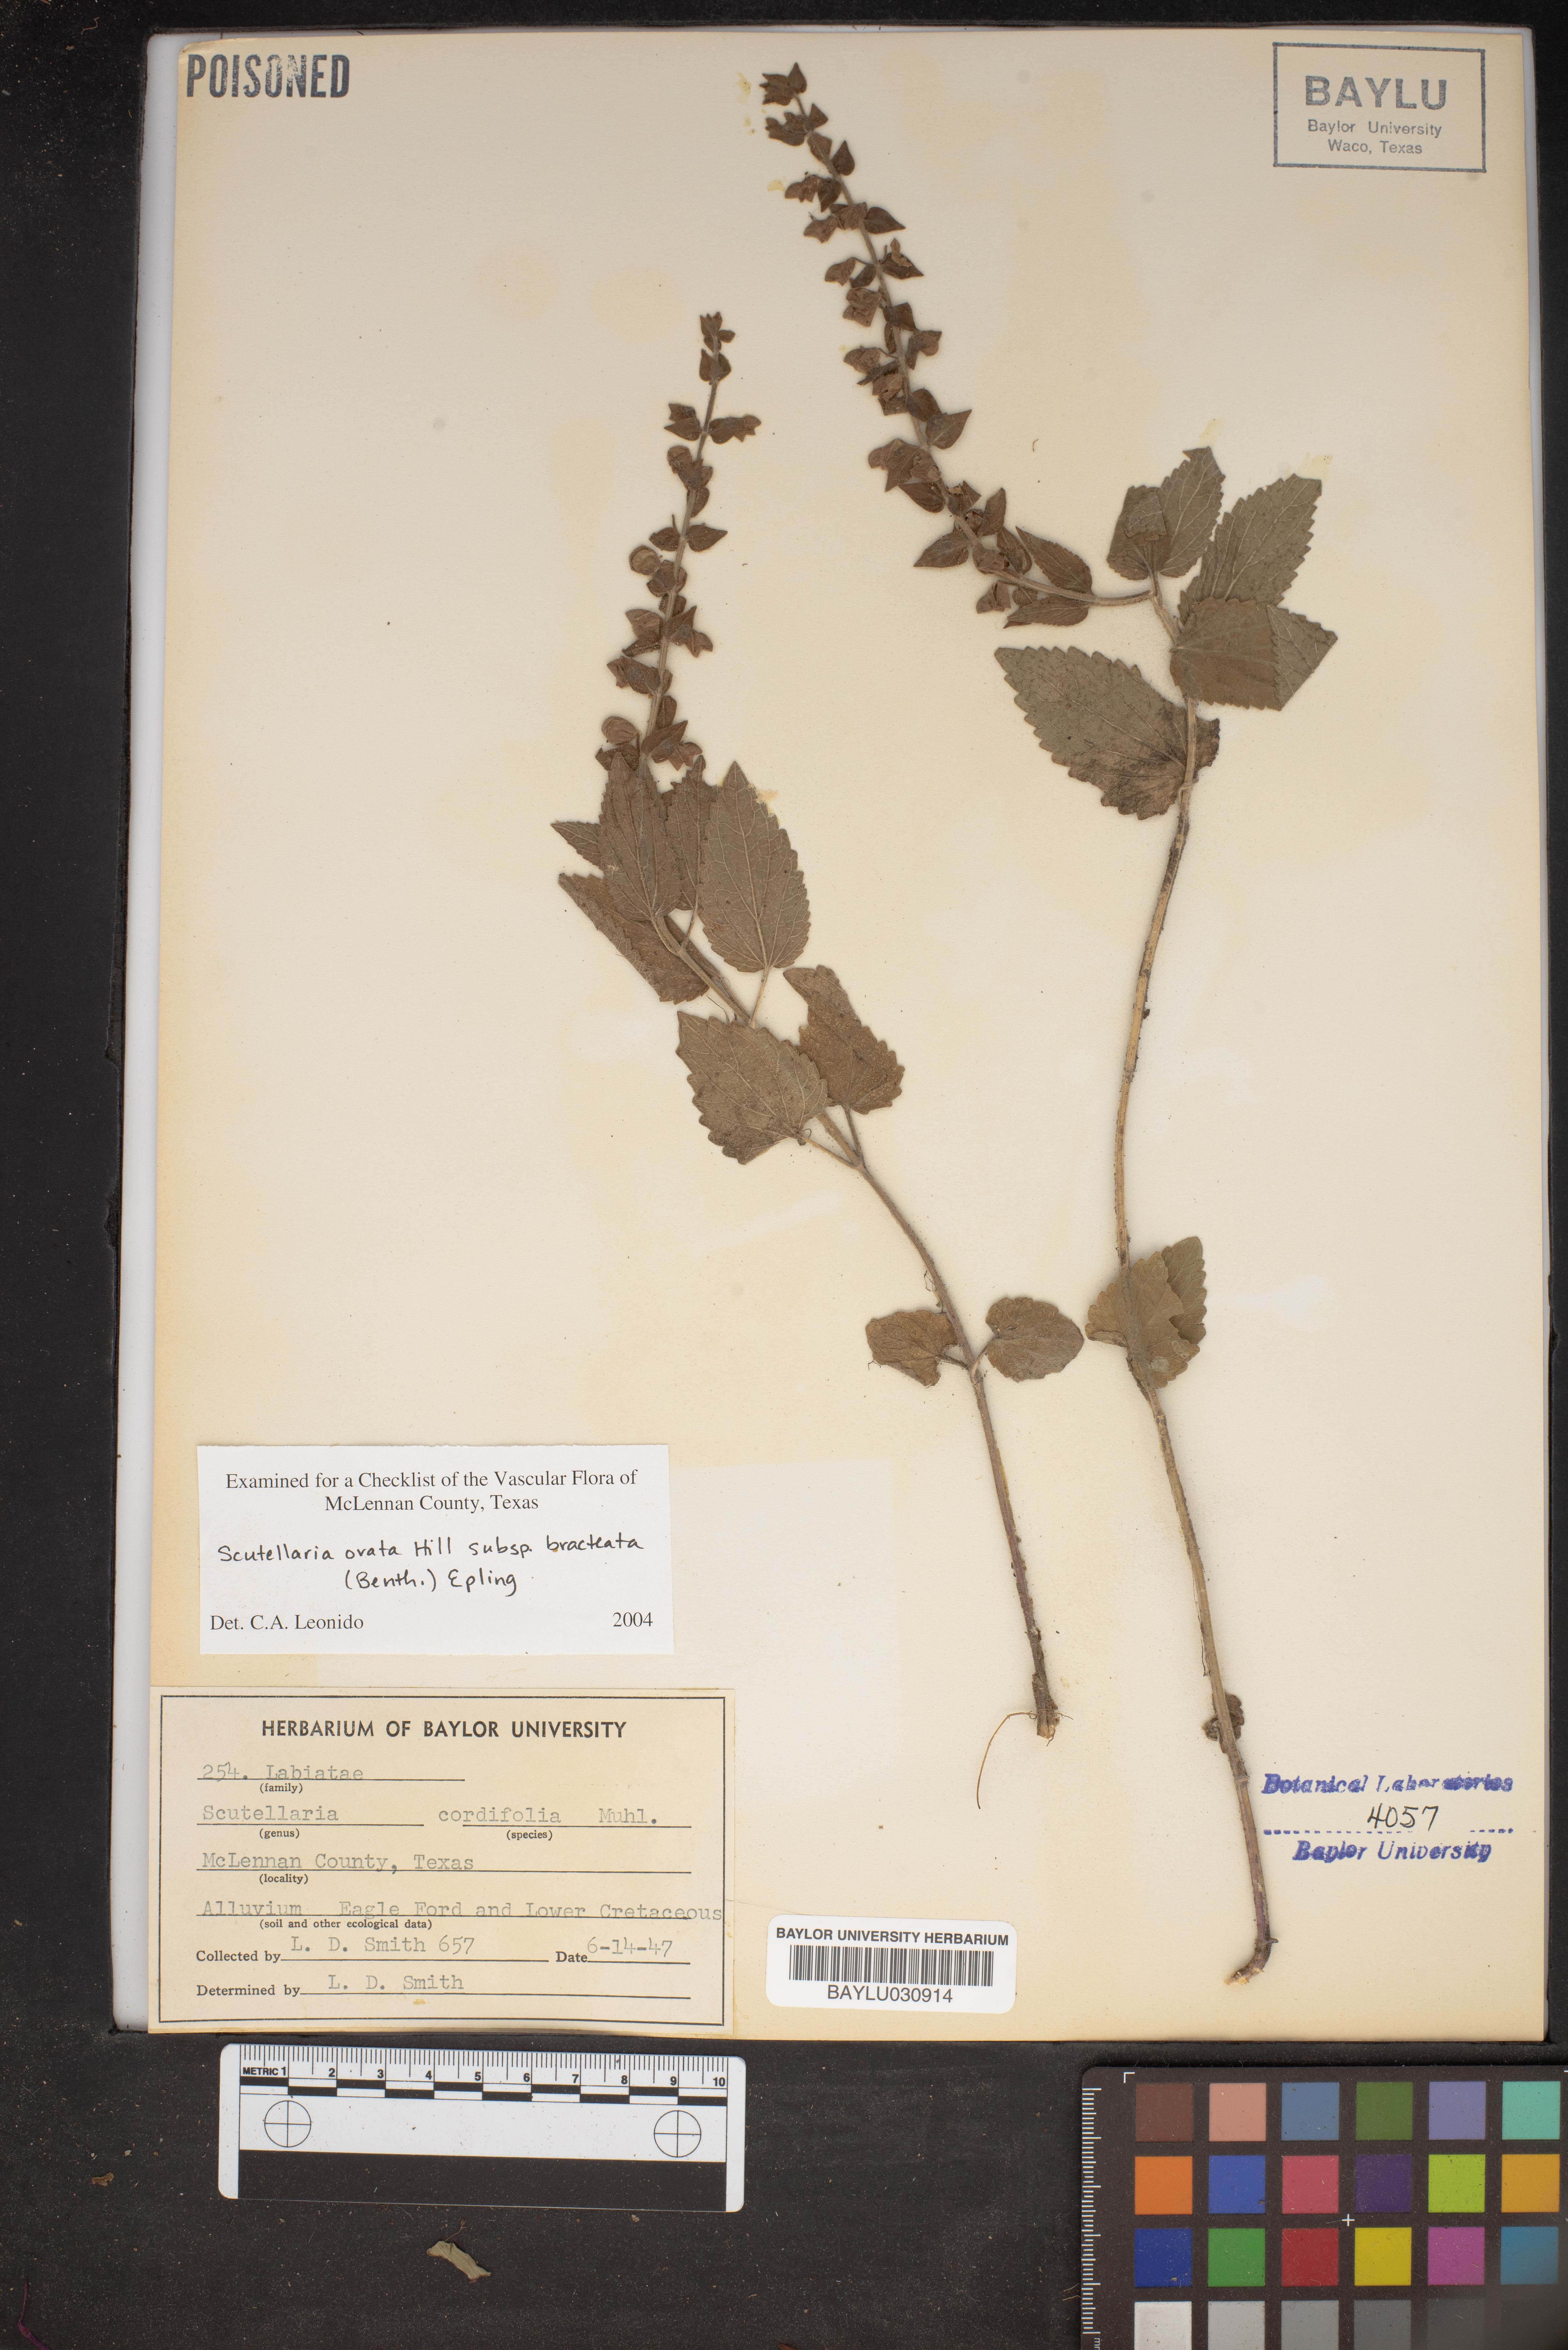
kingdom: Plantae
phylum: Tracheophyta
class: Magnoliopsida
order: Lamiales
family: Lamiaceae
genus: Scutellaria
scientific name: Scutellaria ovata
